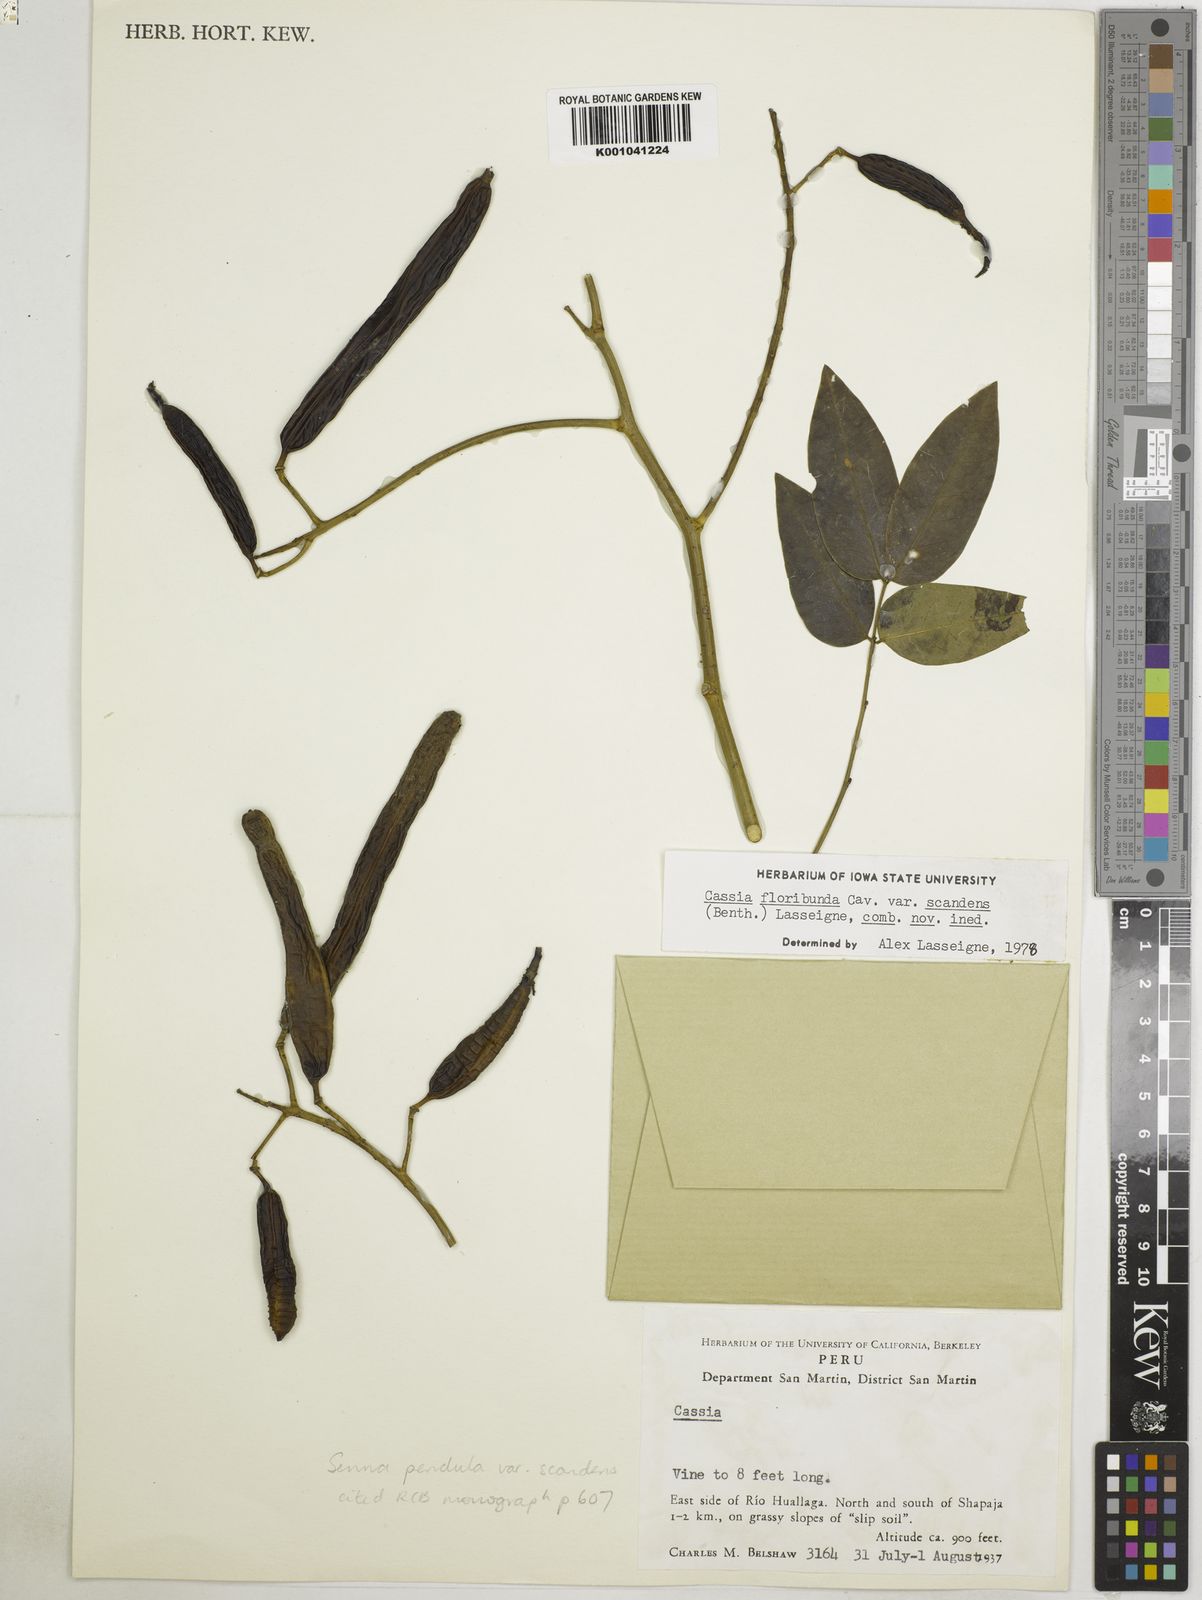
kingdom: Plantae
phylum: Tracheophyta
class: Magnoliopsida
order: Fabales
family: Fabaceae
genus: Senna
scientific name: Senna pendula
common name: Easter cassia
